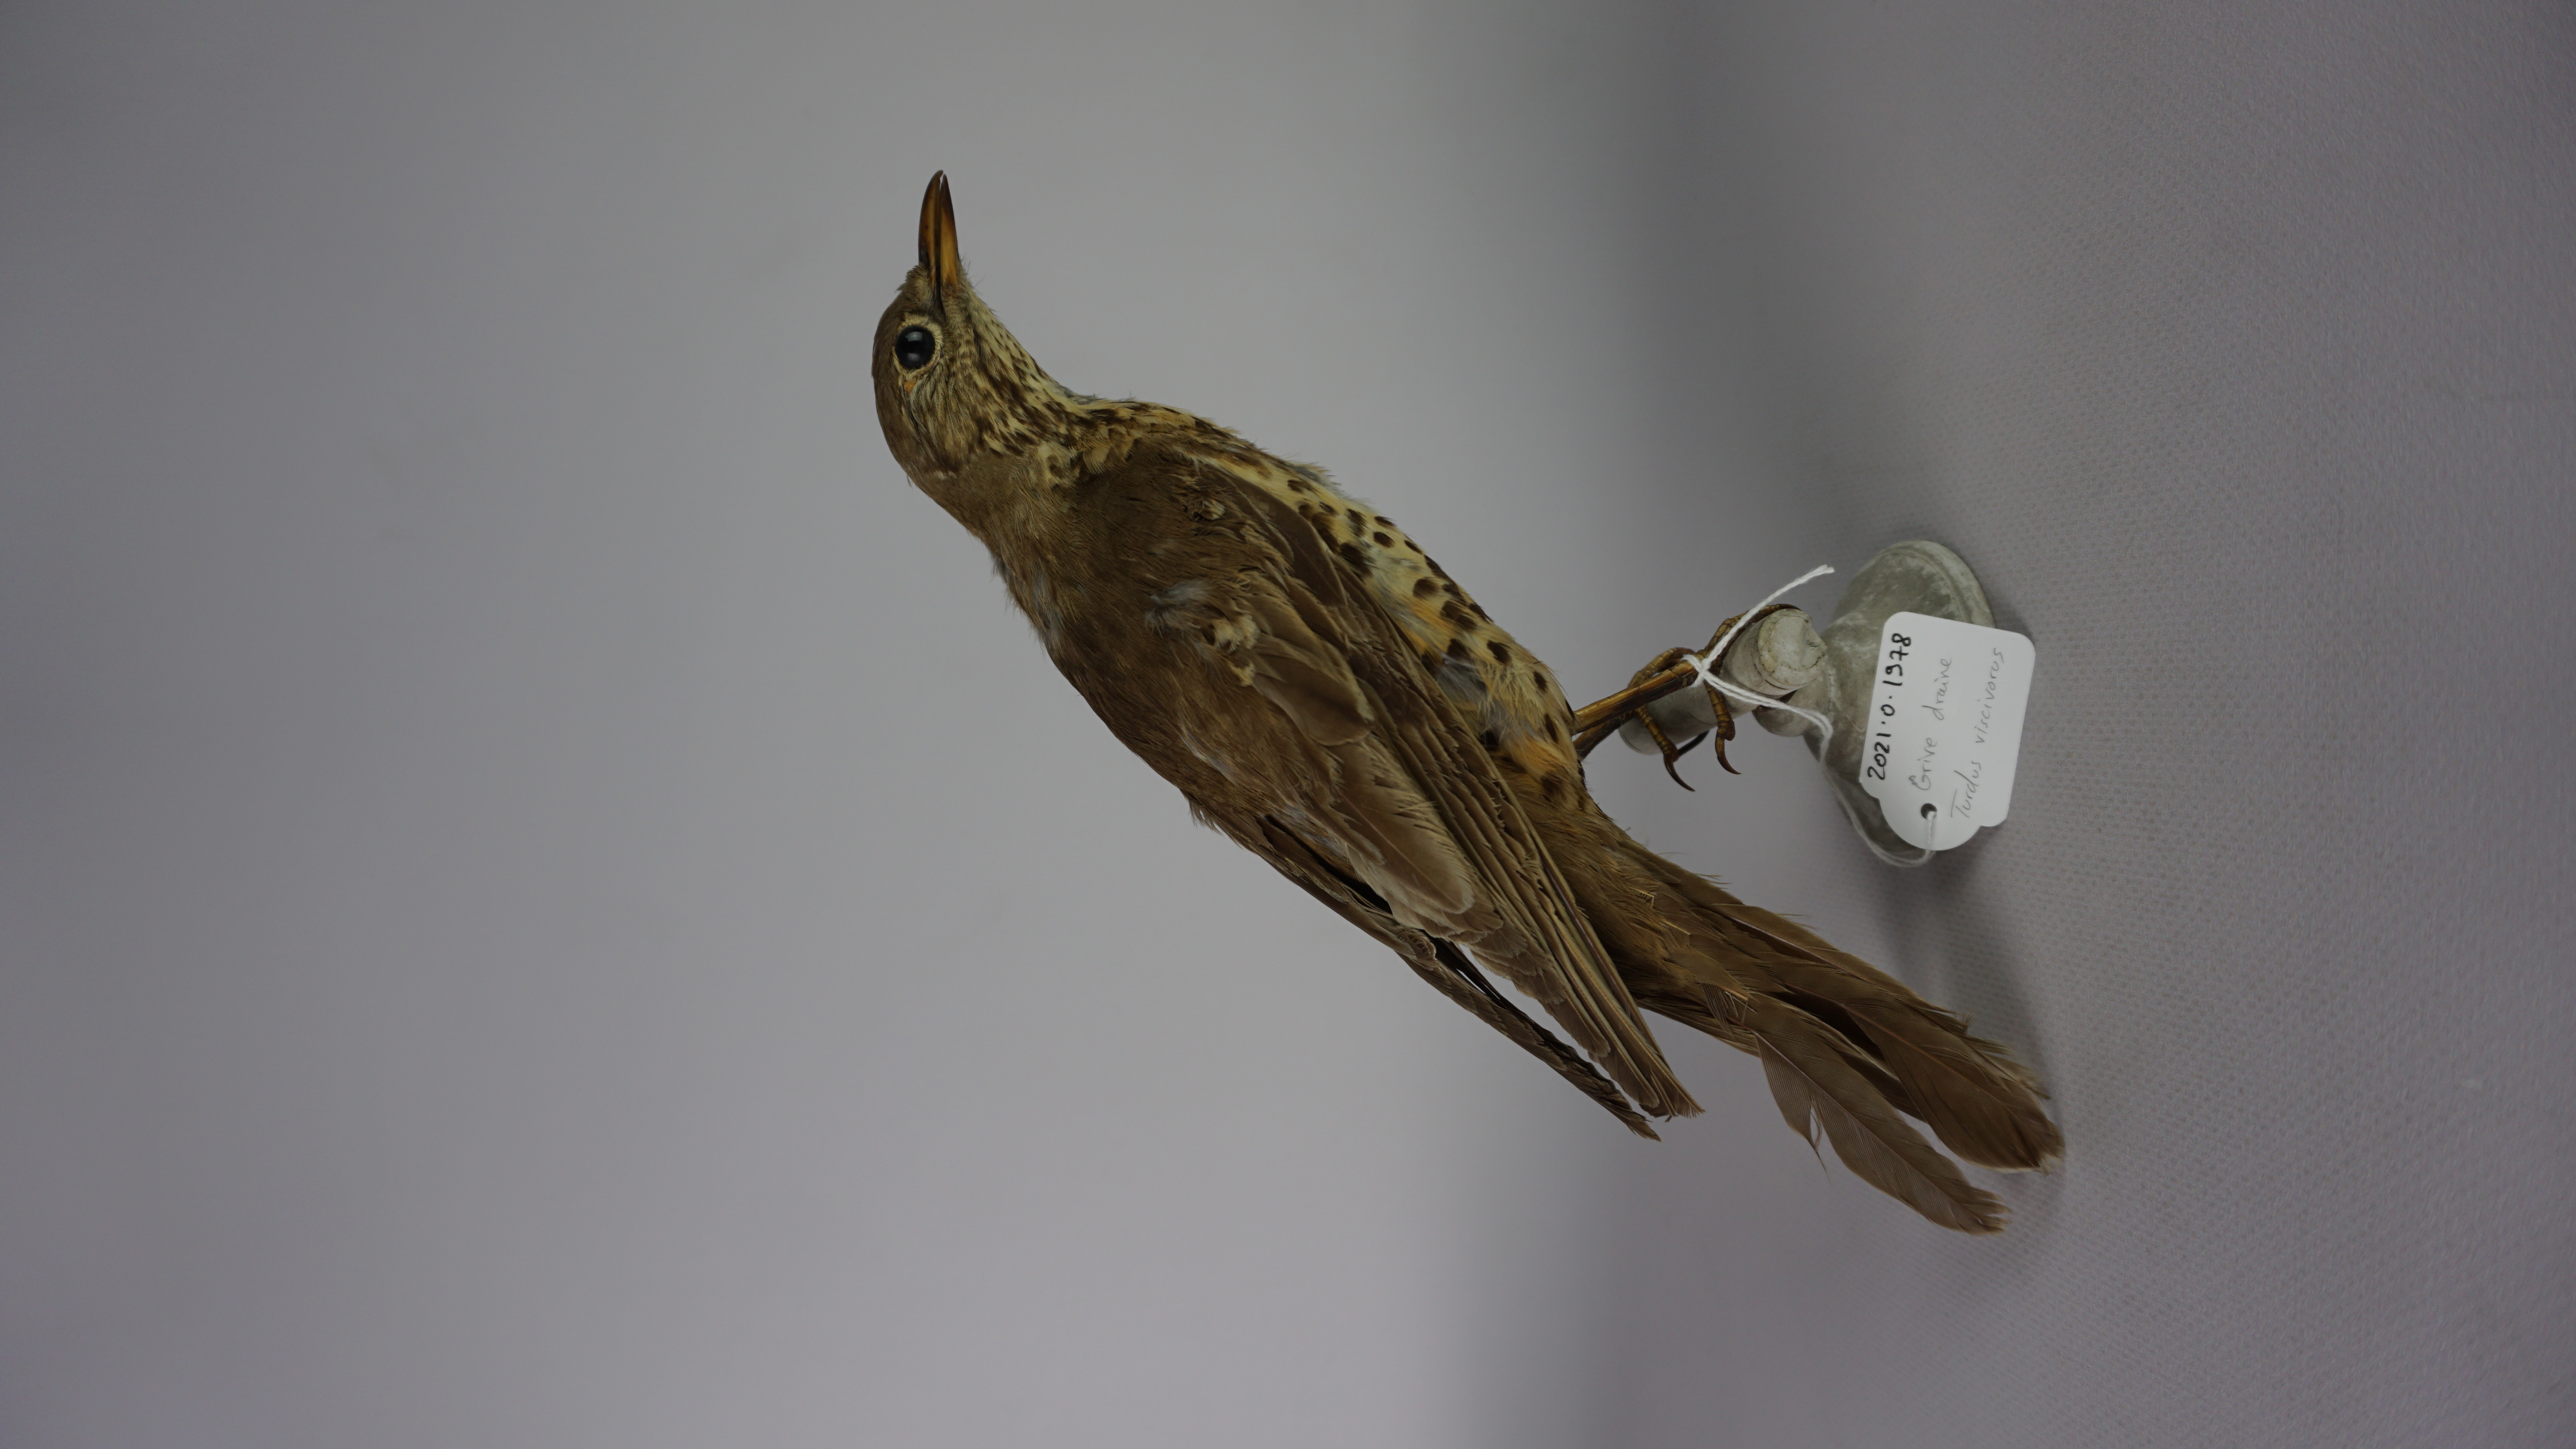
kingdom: Animalia
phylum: Chordata
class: Aves
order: Passeriformes
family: Turdidae
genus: Turdus
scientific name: Turdus viscivorus
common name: Mistle thrush
